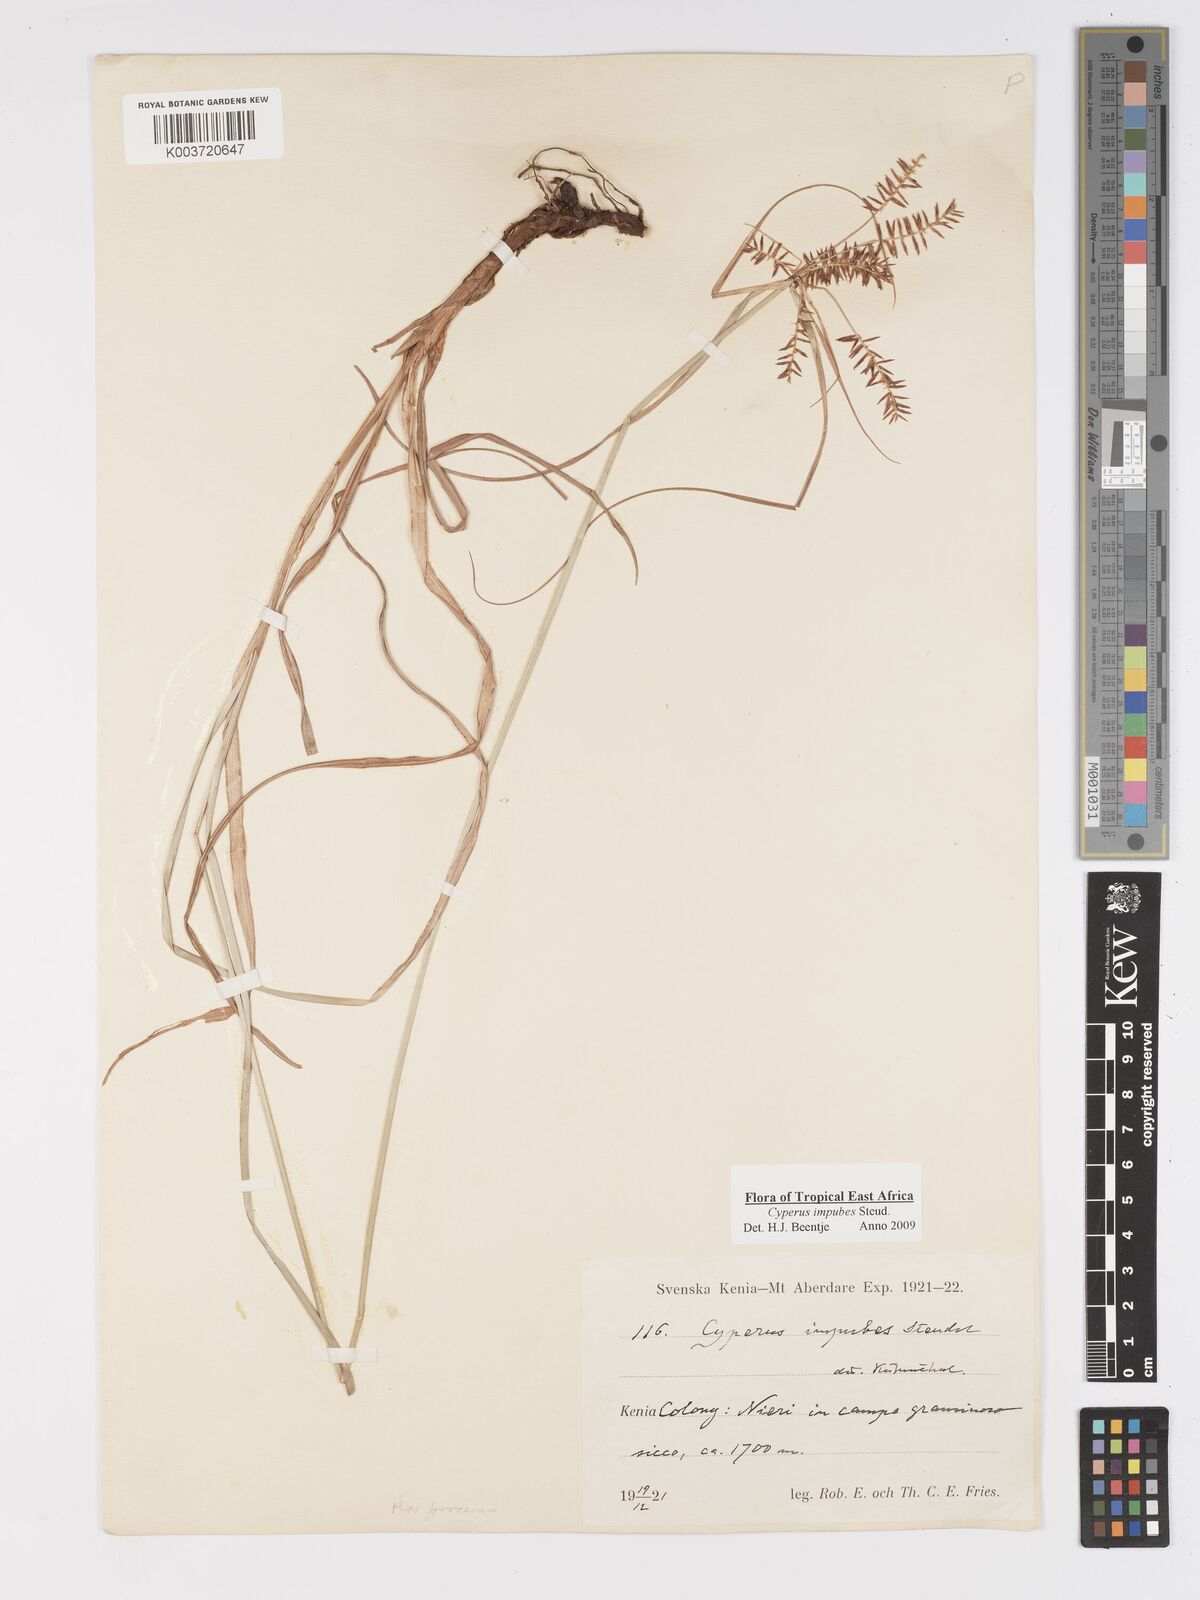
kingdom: Plantae
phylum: Tracheophyta
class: Liliopsida
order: Poales
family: Cyperaceae
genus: Cyperus
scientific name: Cyperus impubes
